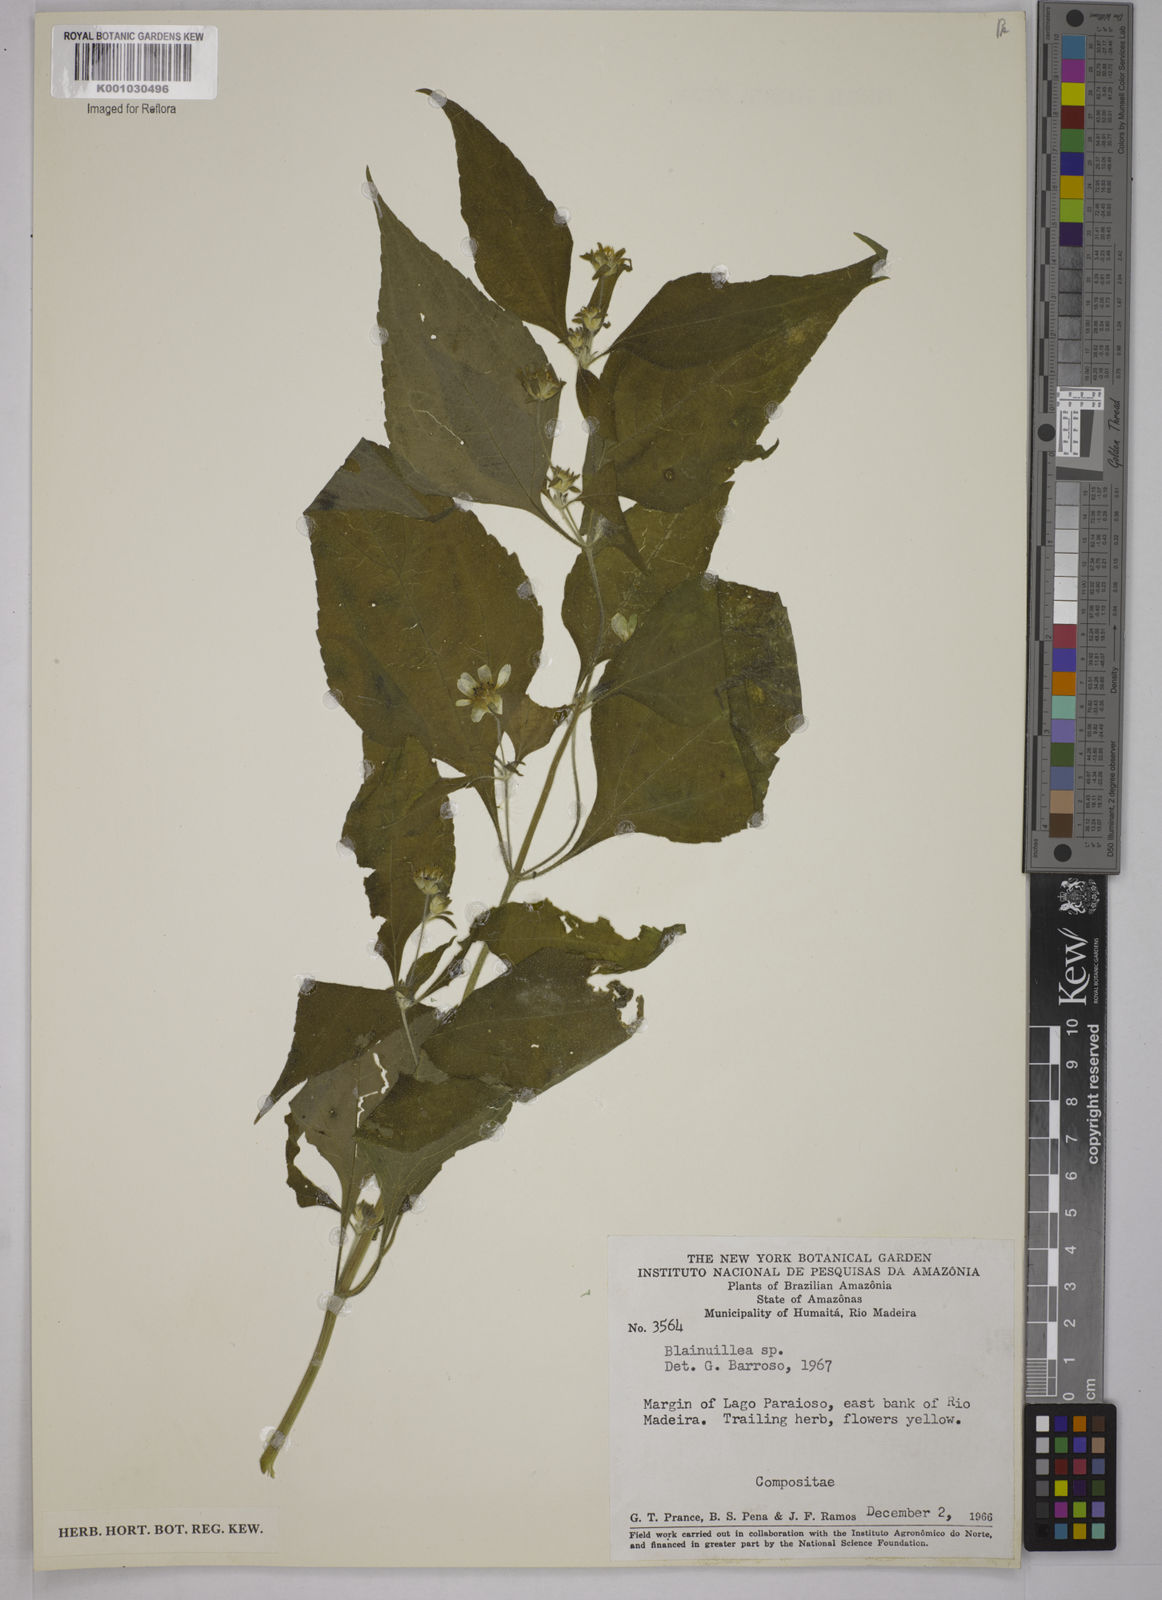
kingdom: Plantae
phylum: Tracheophyta
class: Magnoliopsida
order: Asterales
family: Asteraceae
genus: Blainvillea
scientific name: Blainvillea
